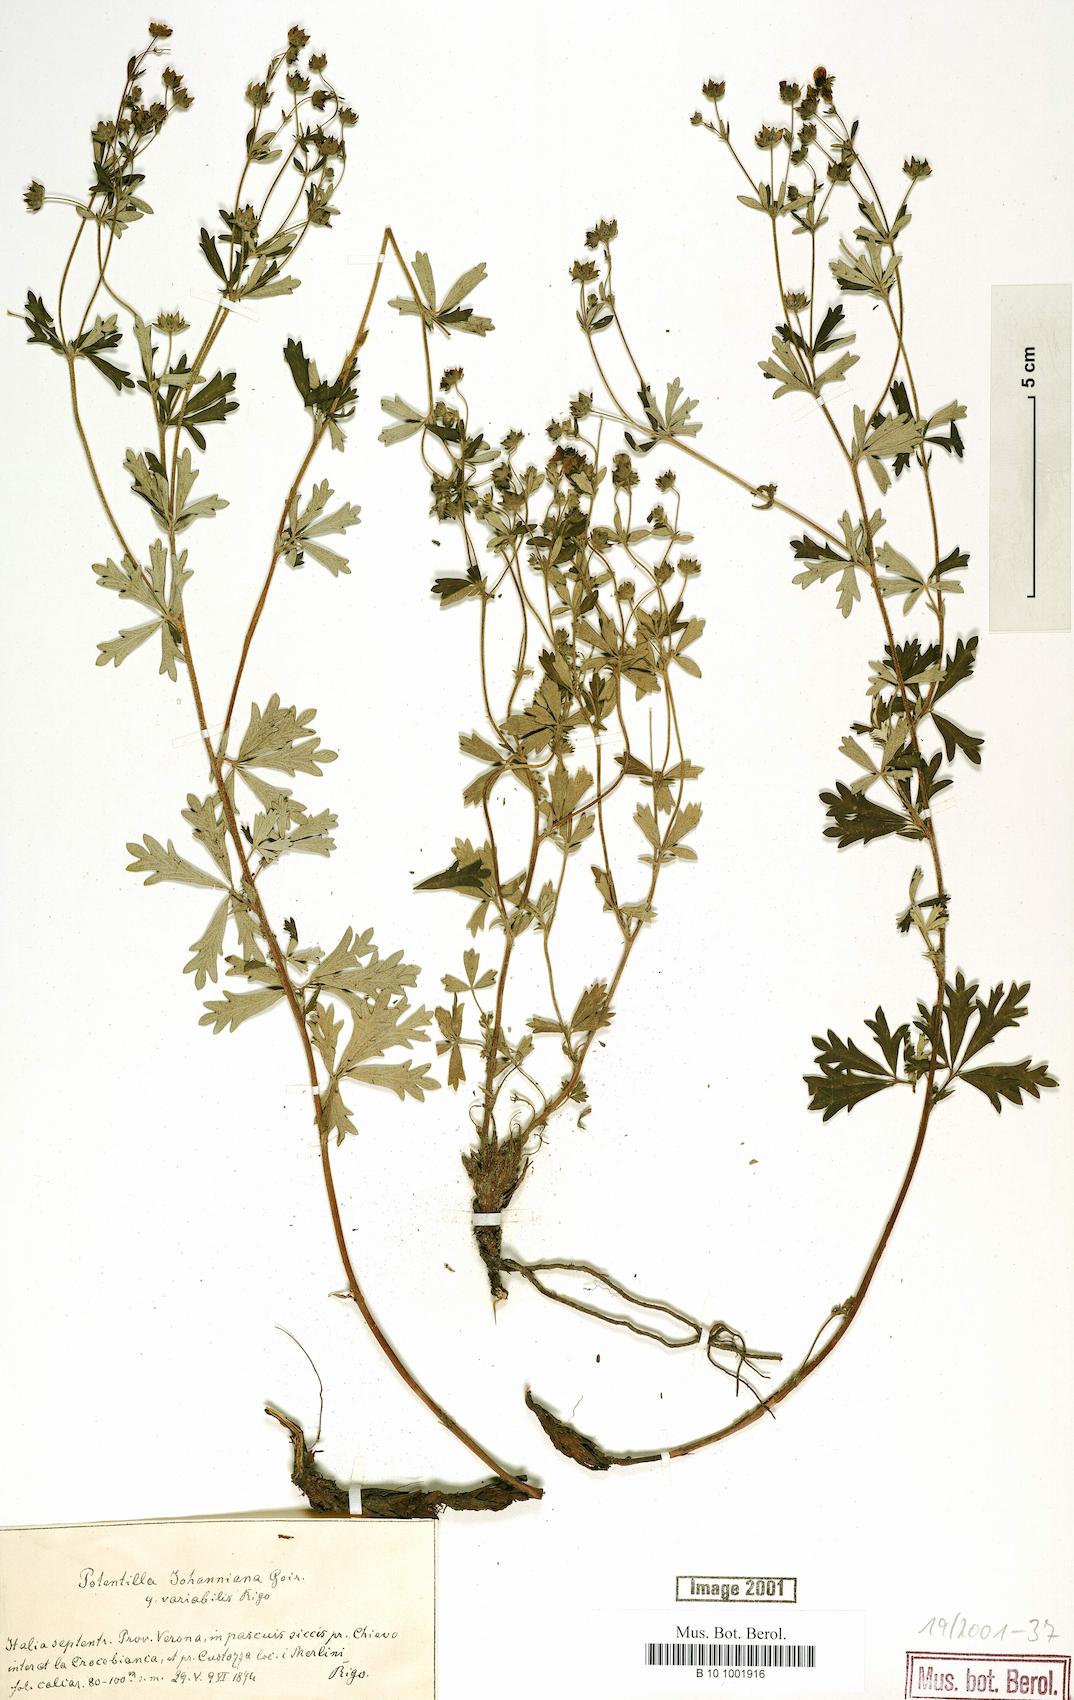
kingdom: Plantae
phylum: Tracheophyta
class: Magnoliopsida
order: Rosales
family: Rosaceae
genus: Potentilla
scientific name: Potentilla johanniniana
